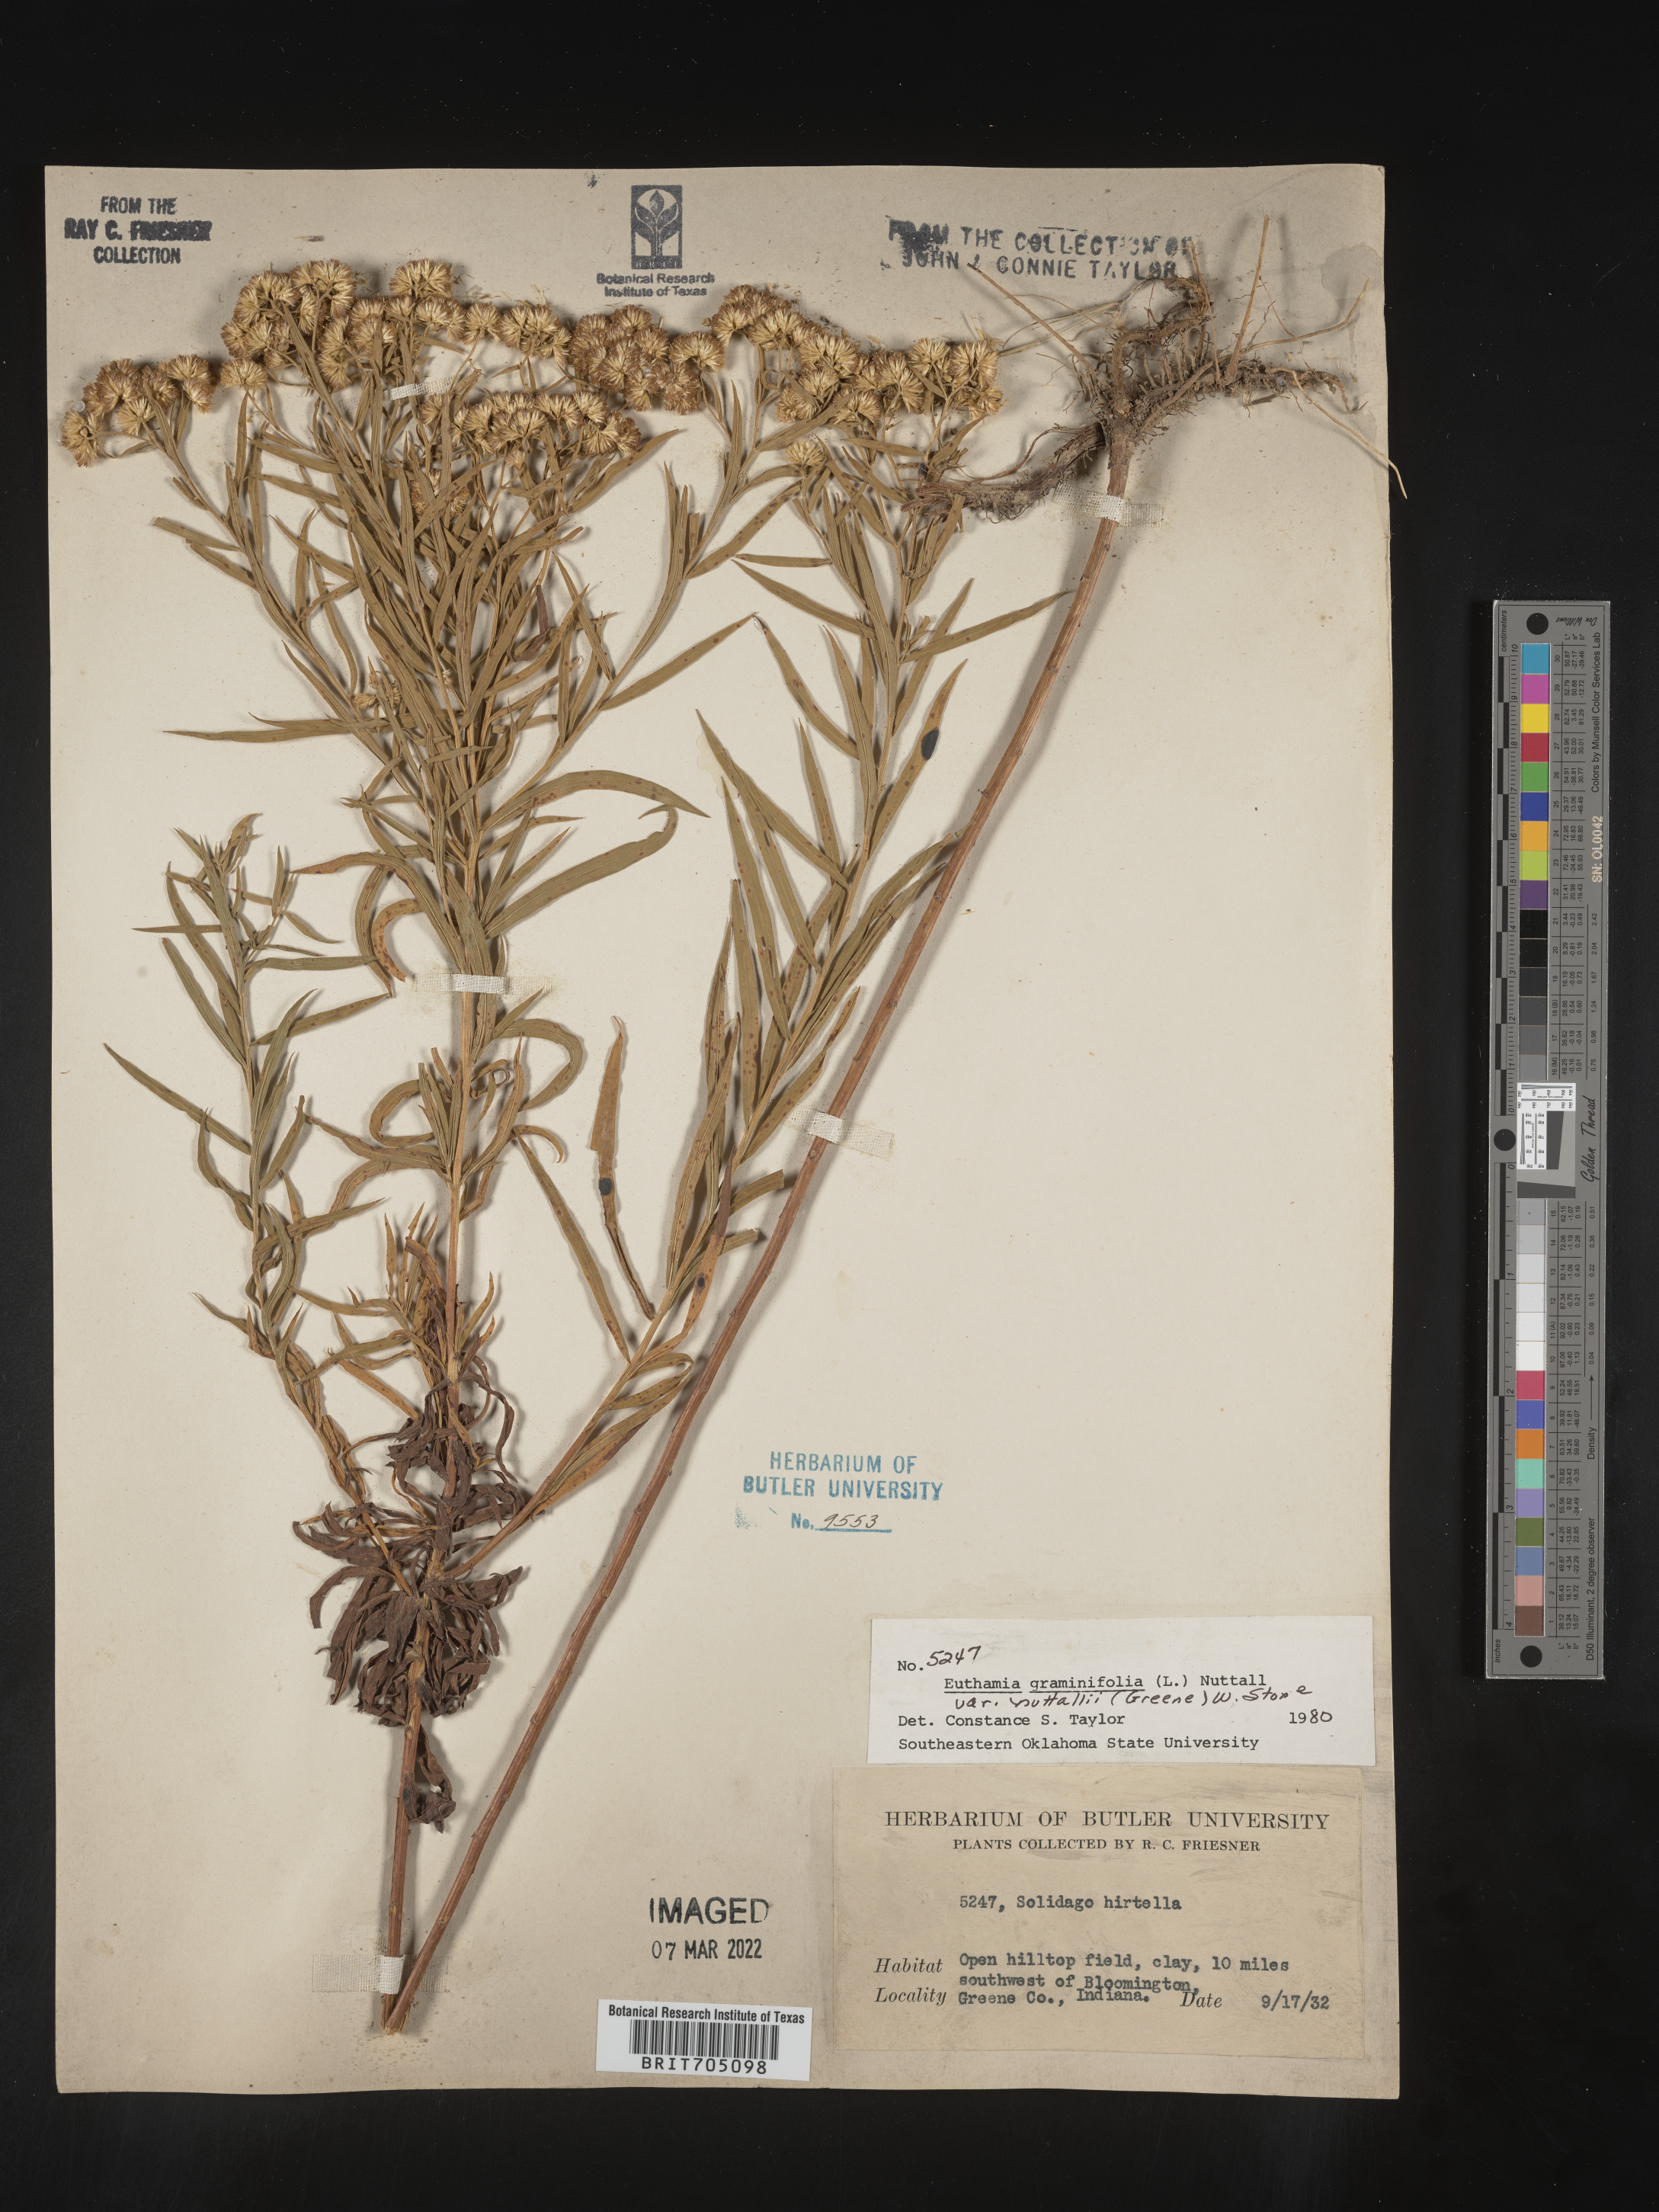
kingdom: Plantae
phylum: Tracheophyta
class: Magnoliopsida
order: Asterales
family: Asteraceae
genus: Euthamia
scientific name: Euthamia graminifolia
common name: Common goldentop
